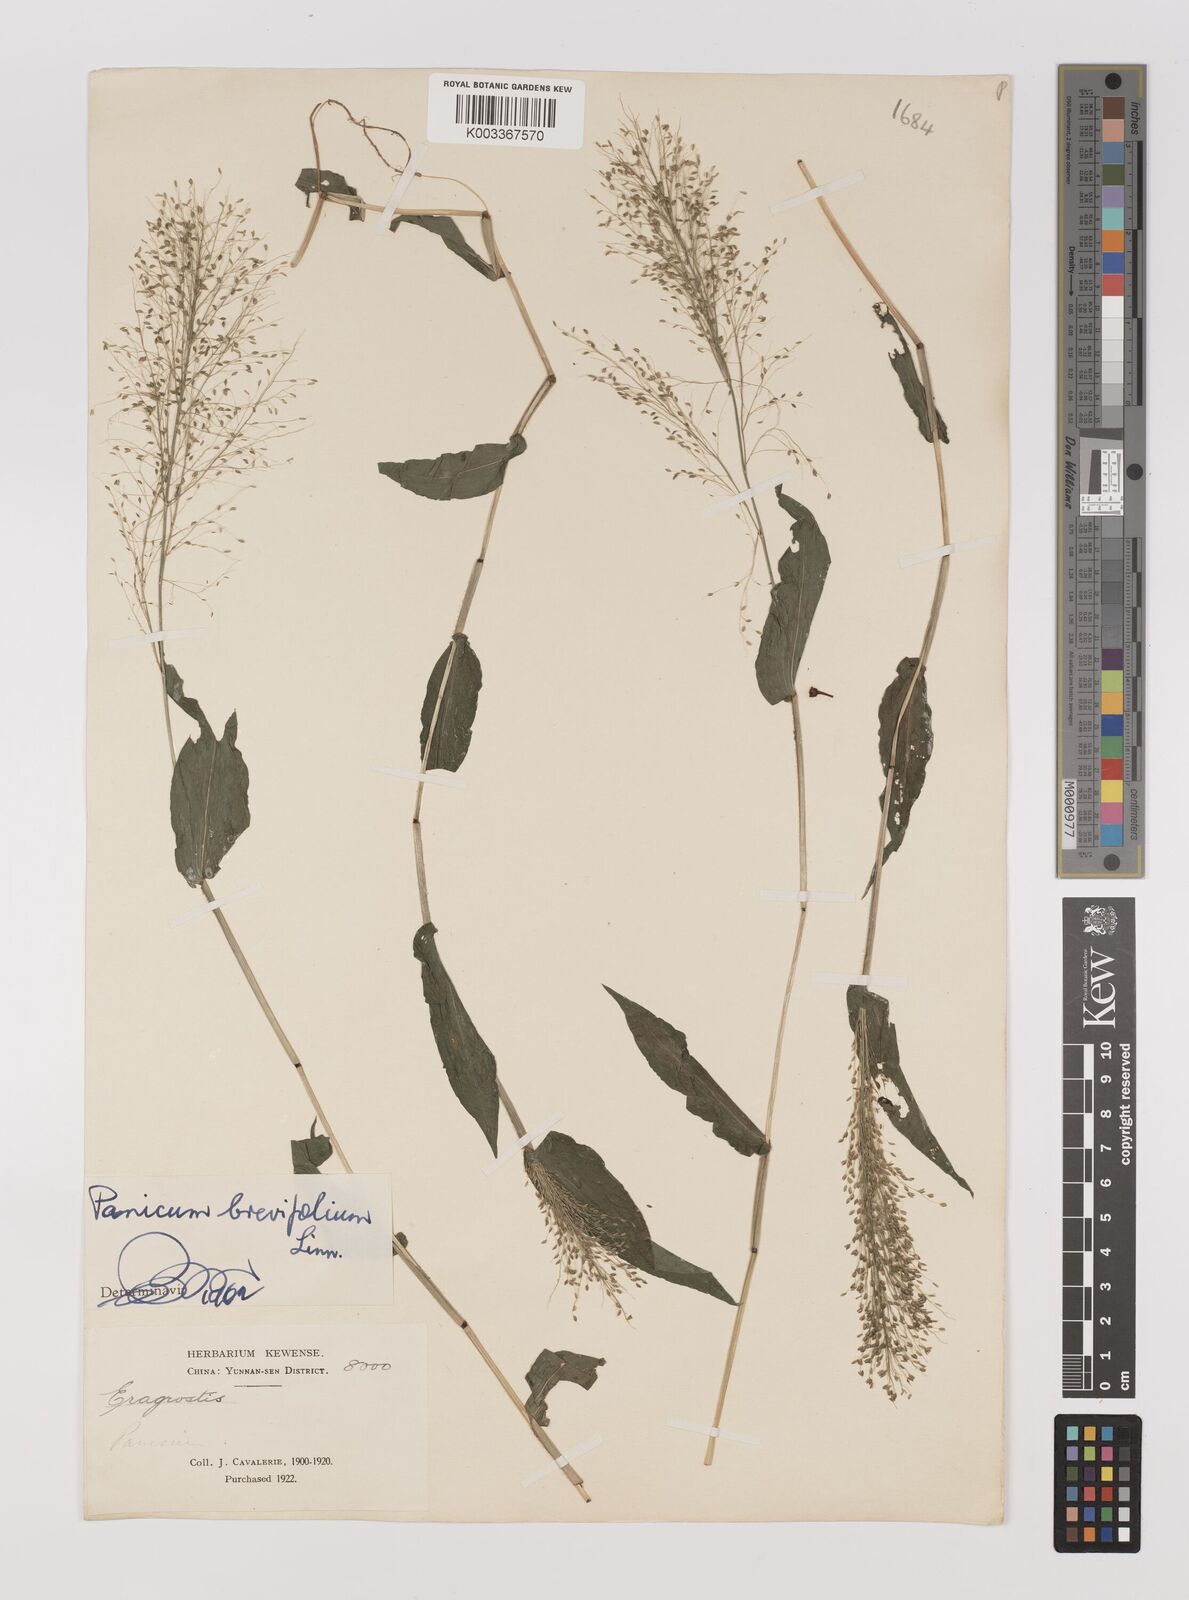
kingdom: Plantae
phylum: Tracheophyta
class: Liliopsida
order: Poales
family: Poaceae
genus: Panicum
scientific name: Panicum brevifolium
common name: Shortleaf panic grass
